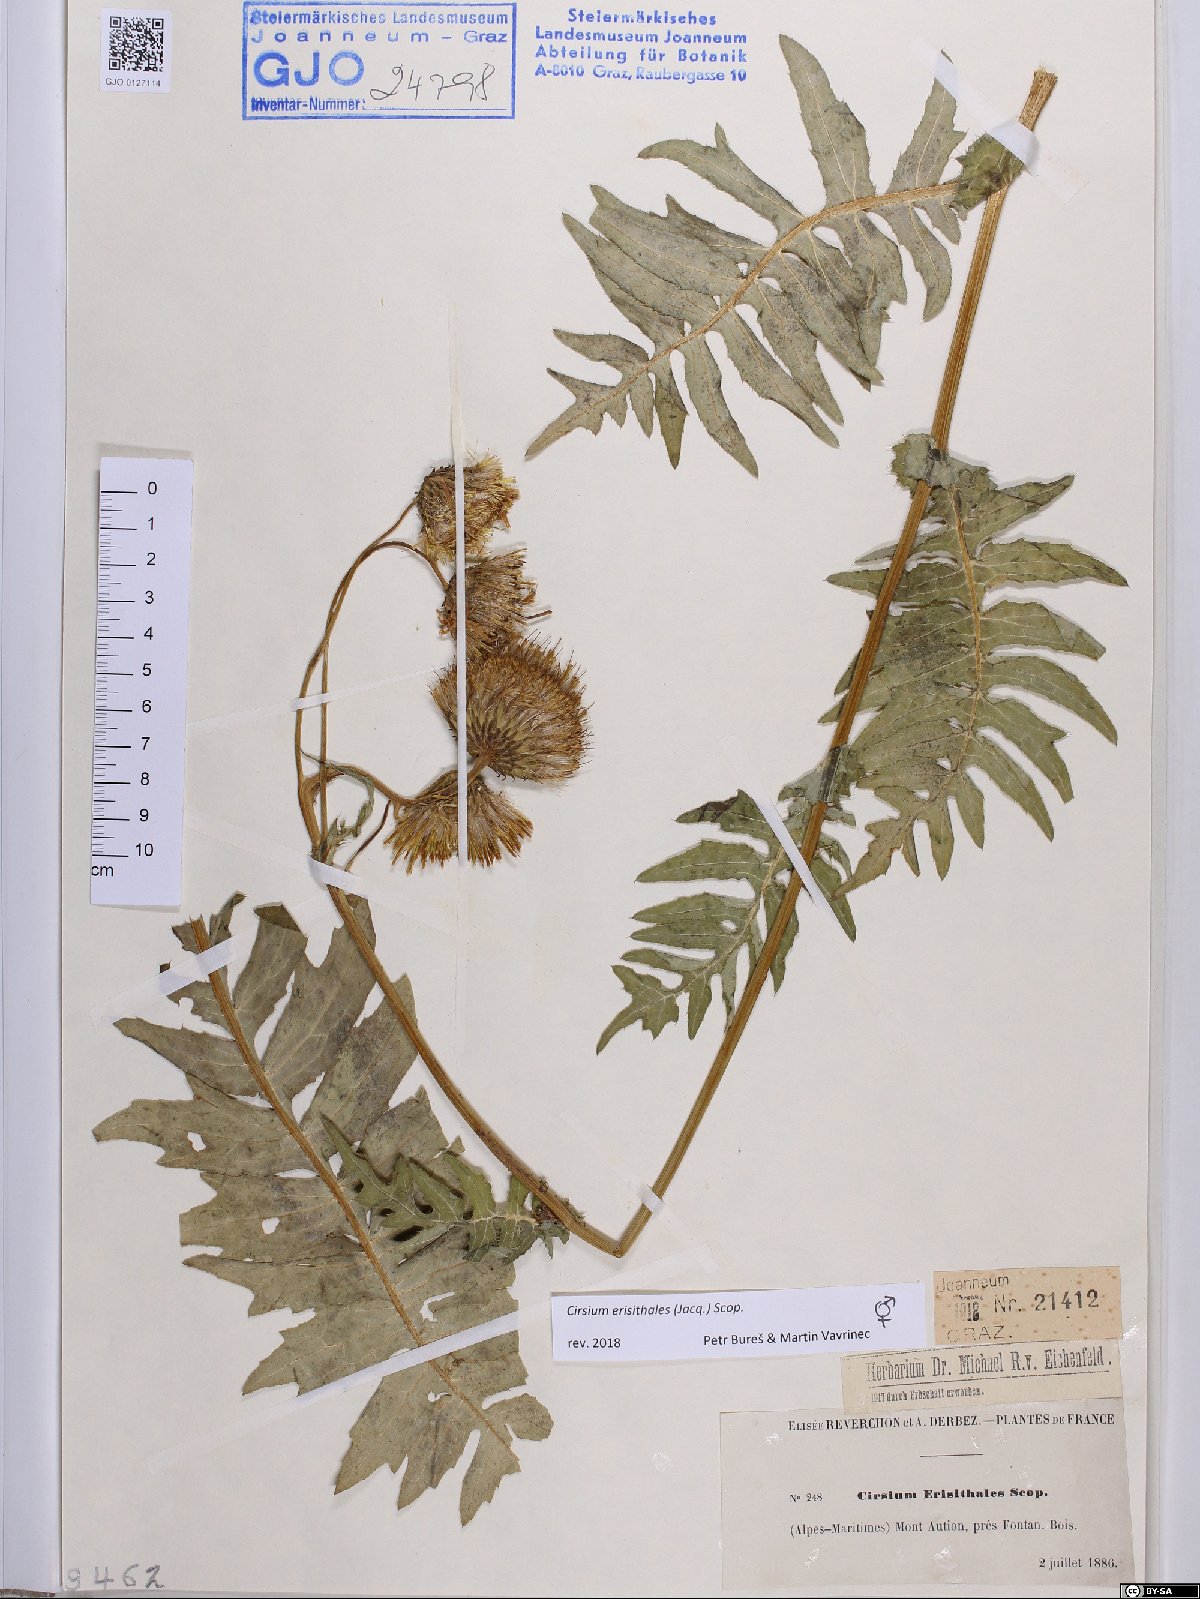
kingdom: Plantae
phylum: Tracheophyta
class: Magnoliopsida
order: Asterales
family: Asteraceae
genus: Cirsium
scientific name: Cirsium erisithales
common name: Yellow thistle
